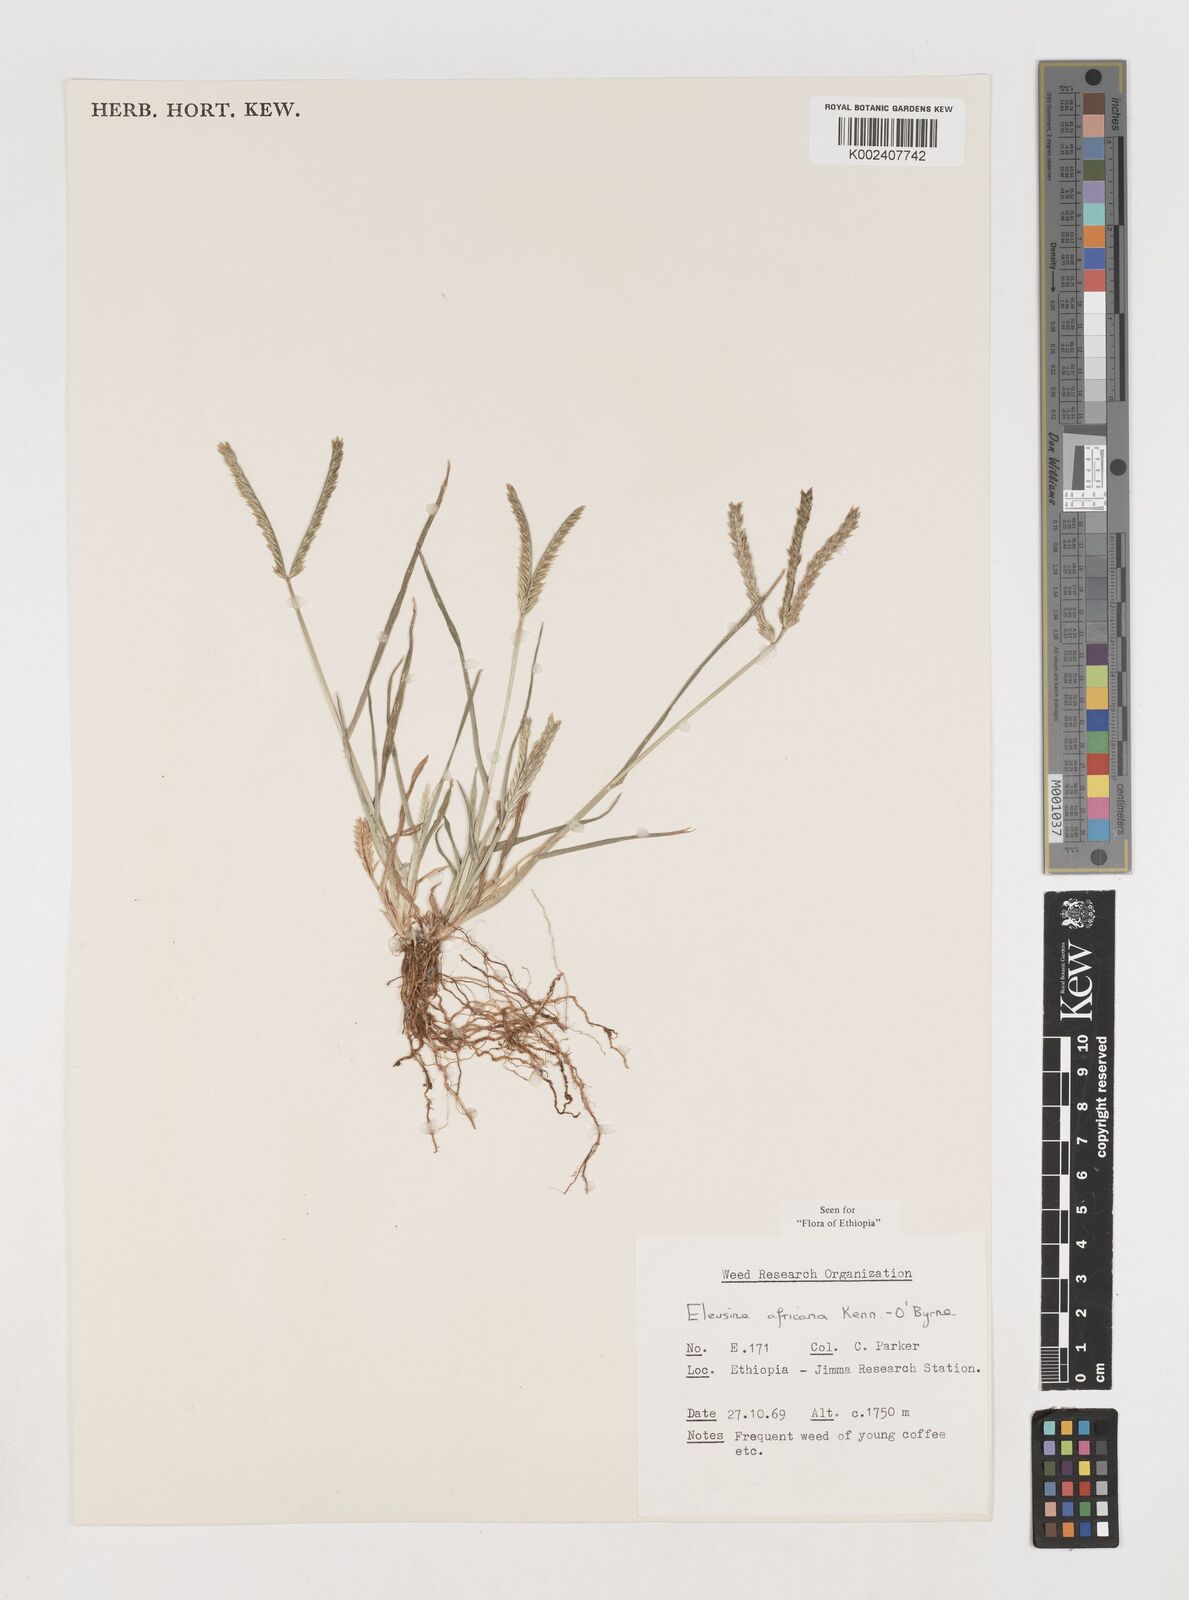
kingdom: Plantae
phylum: Tracheophyta
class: Liliopsida
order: Poales
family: Poaceae
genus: Eleusine
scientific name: Eleusine africana
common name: Wild african finger millet
